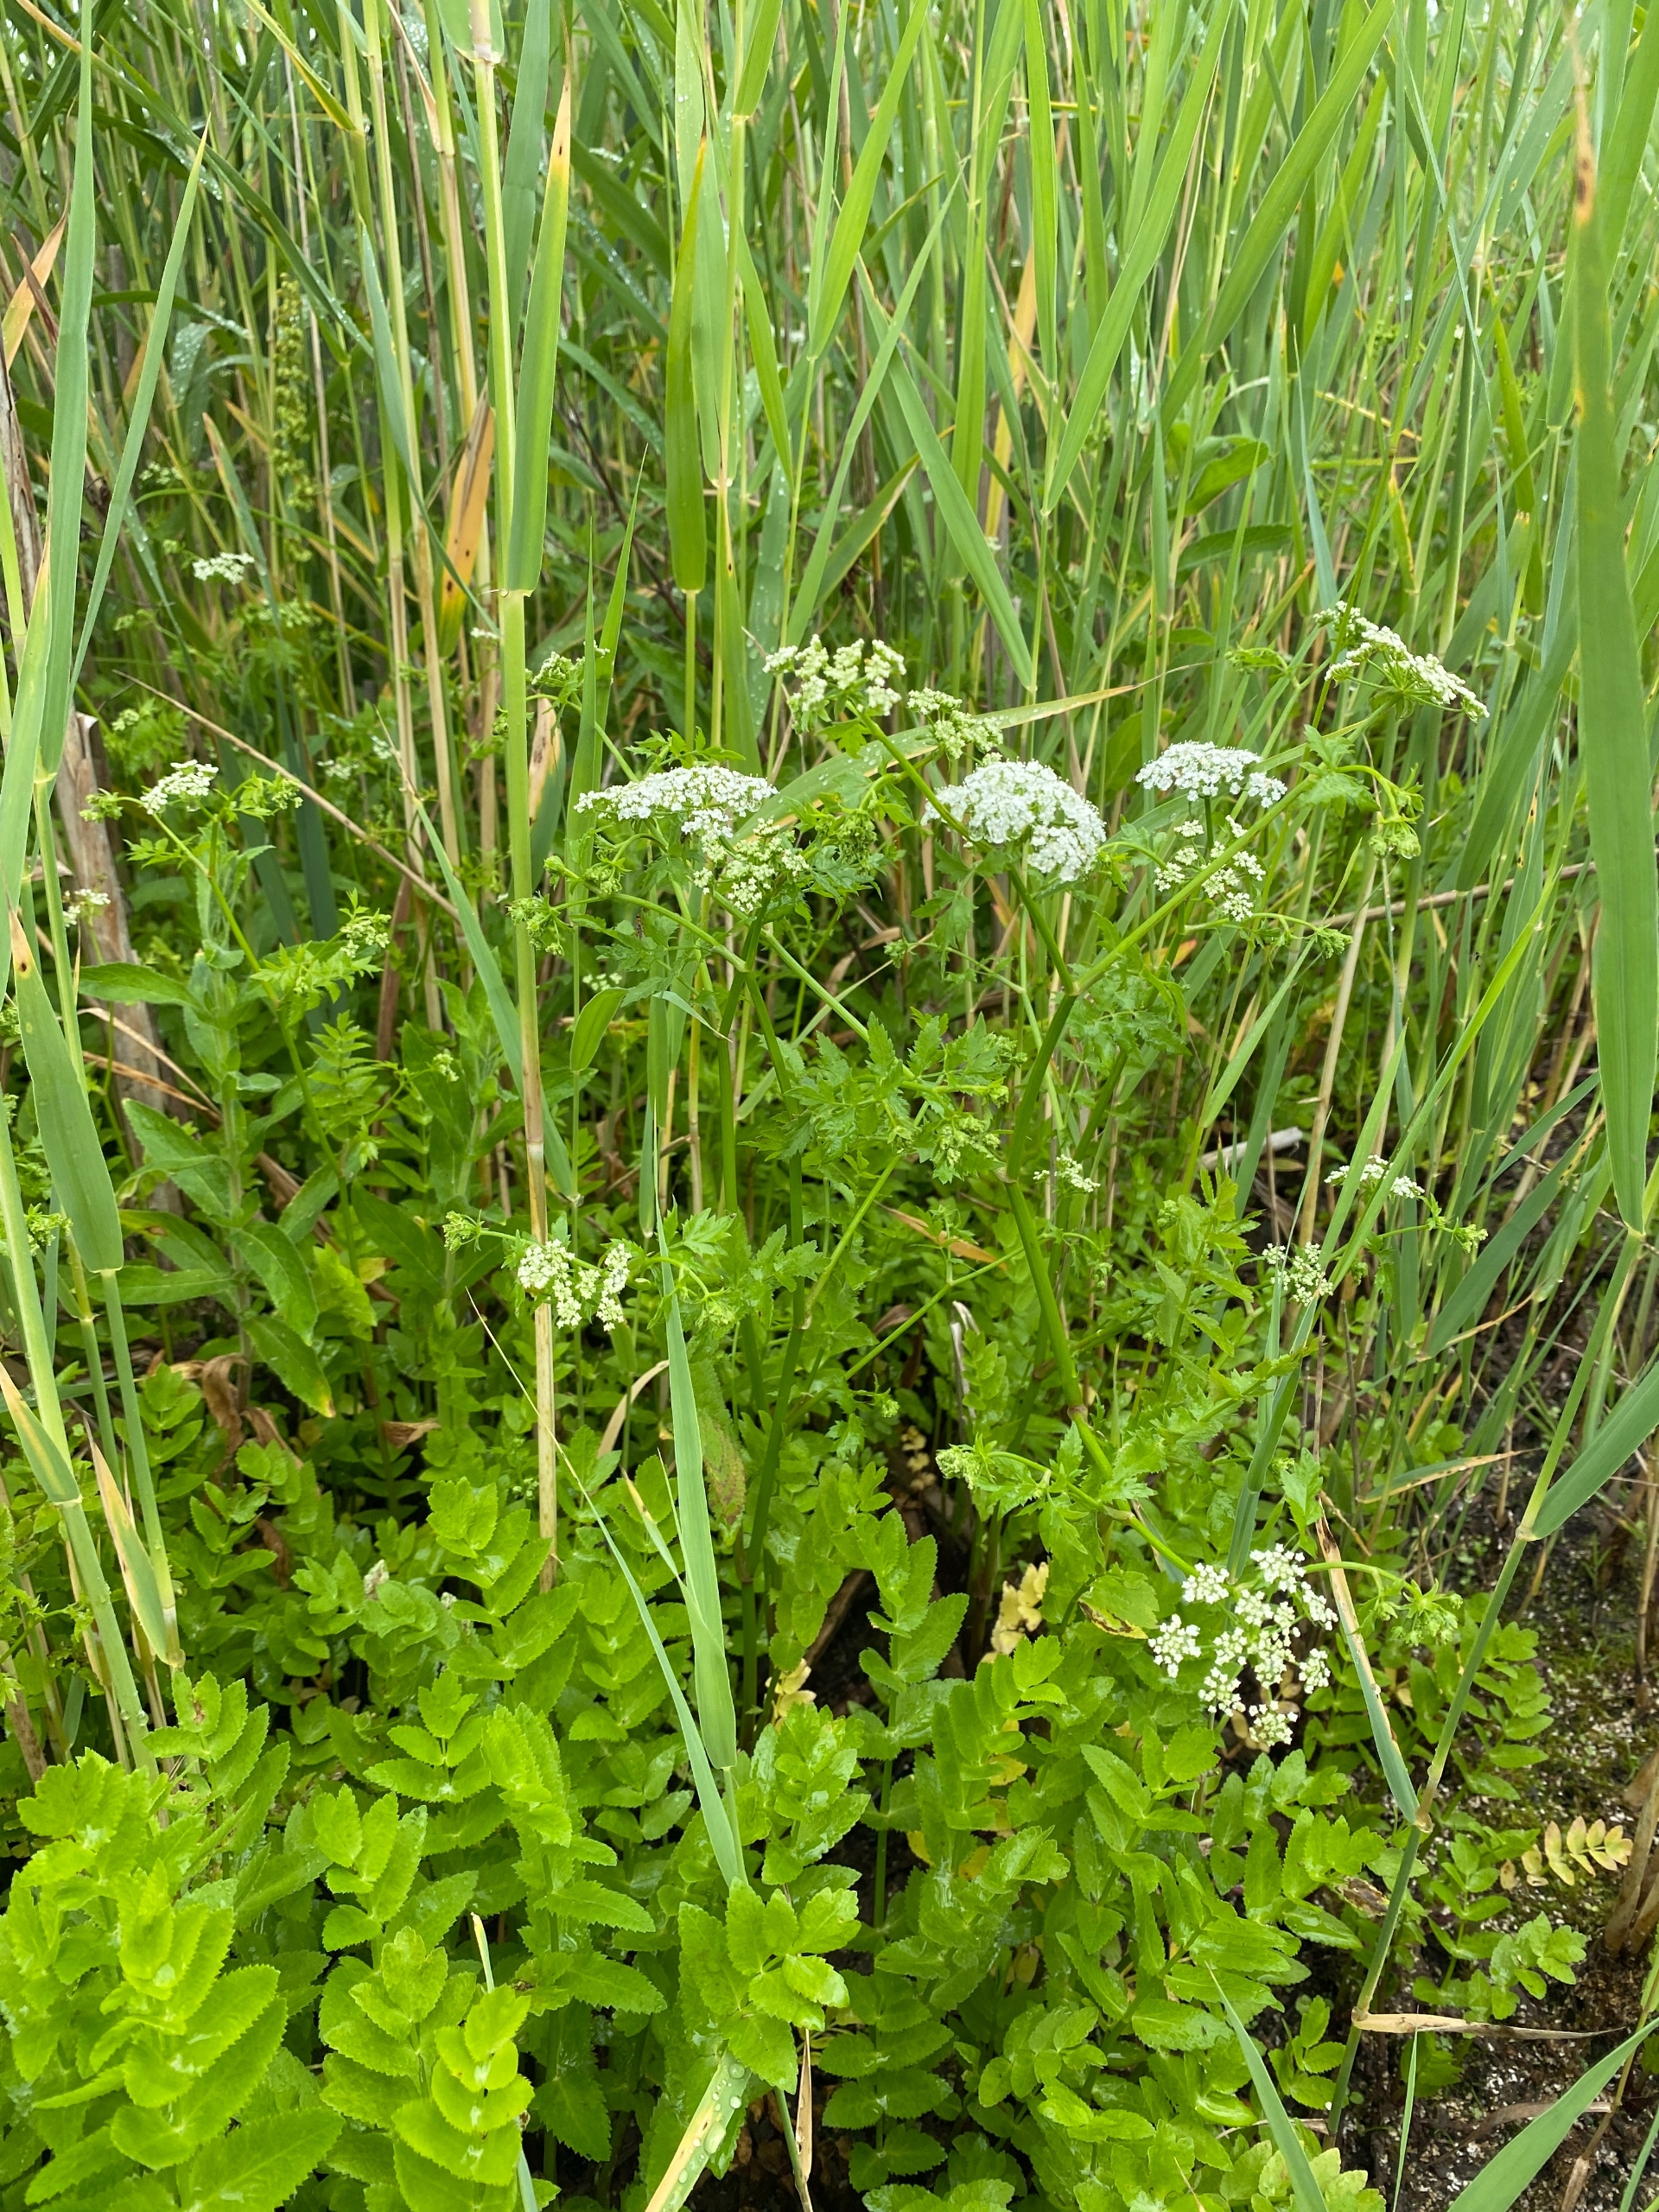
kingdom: Plantae
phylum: Tracheophyta
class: Magnoliopsida
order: Apiales
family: Apiaceae
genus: Berula
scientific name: Berula erecta
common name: Sideskærm
